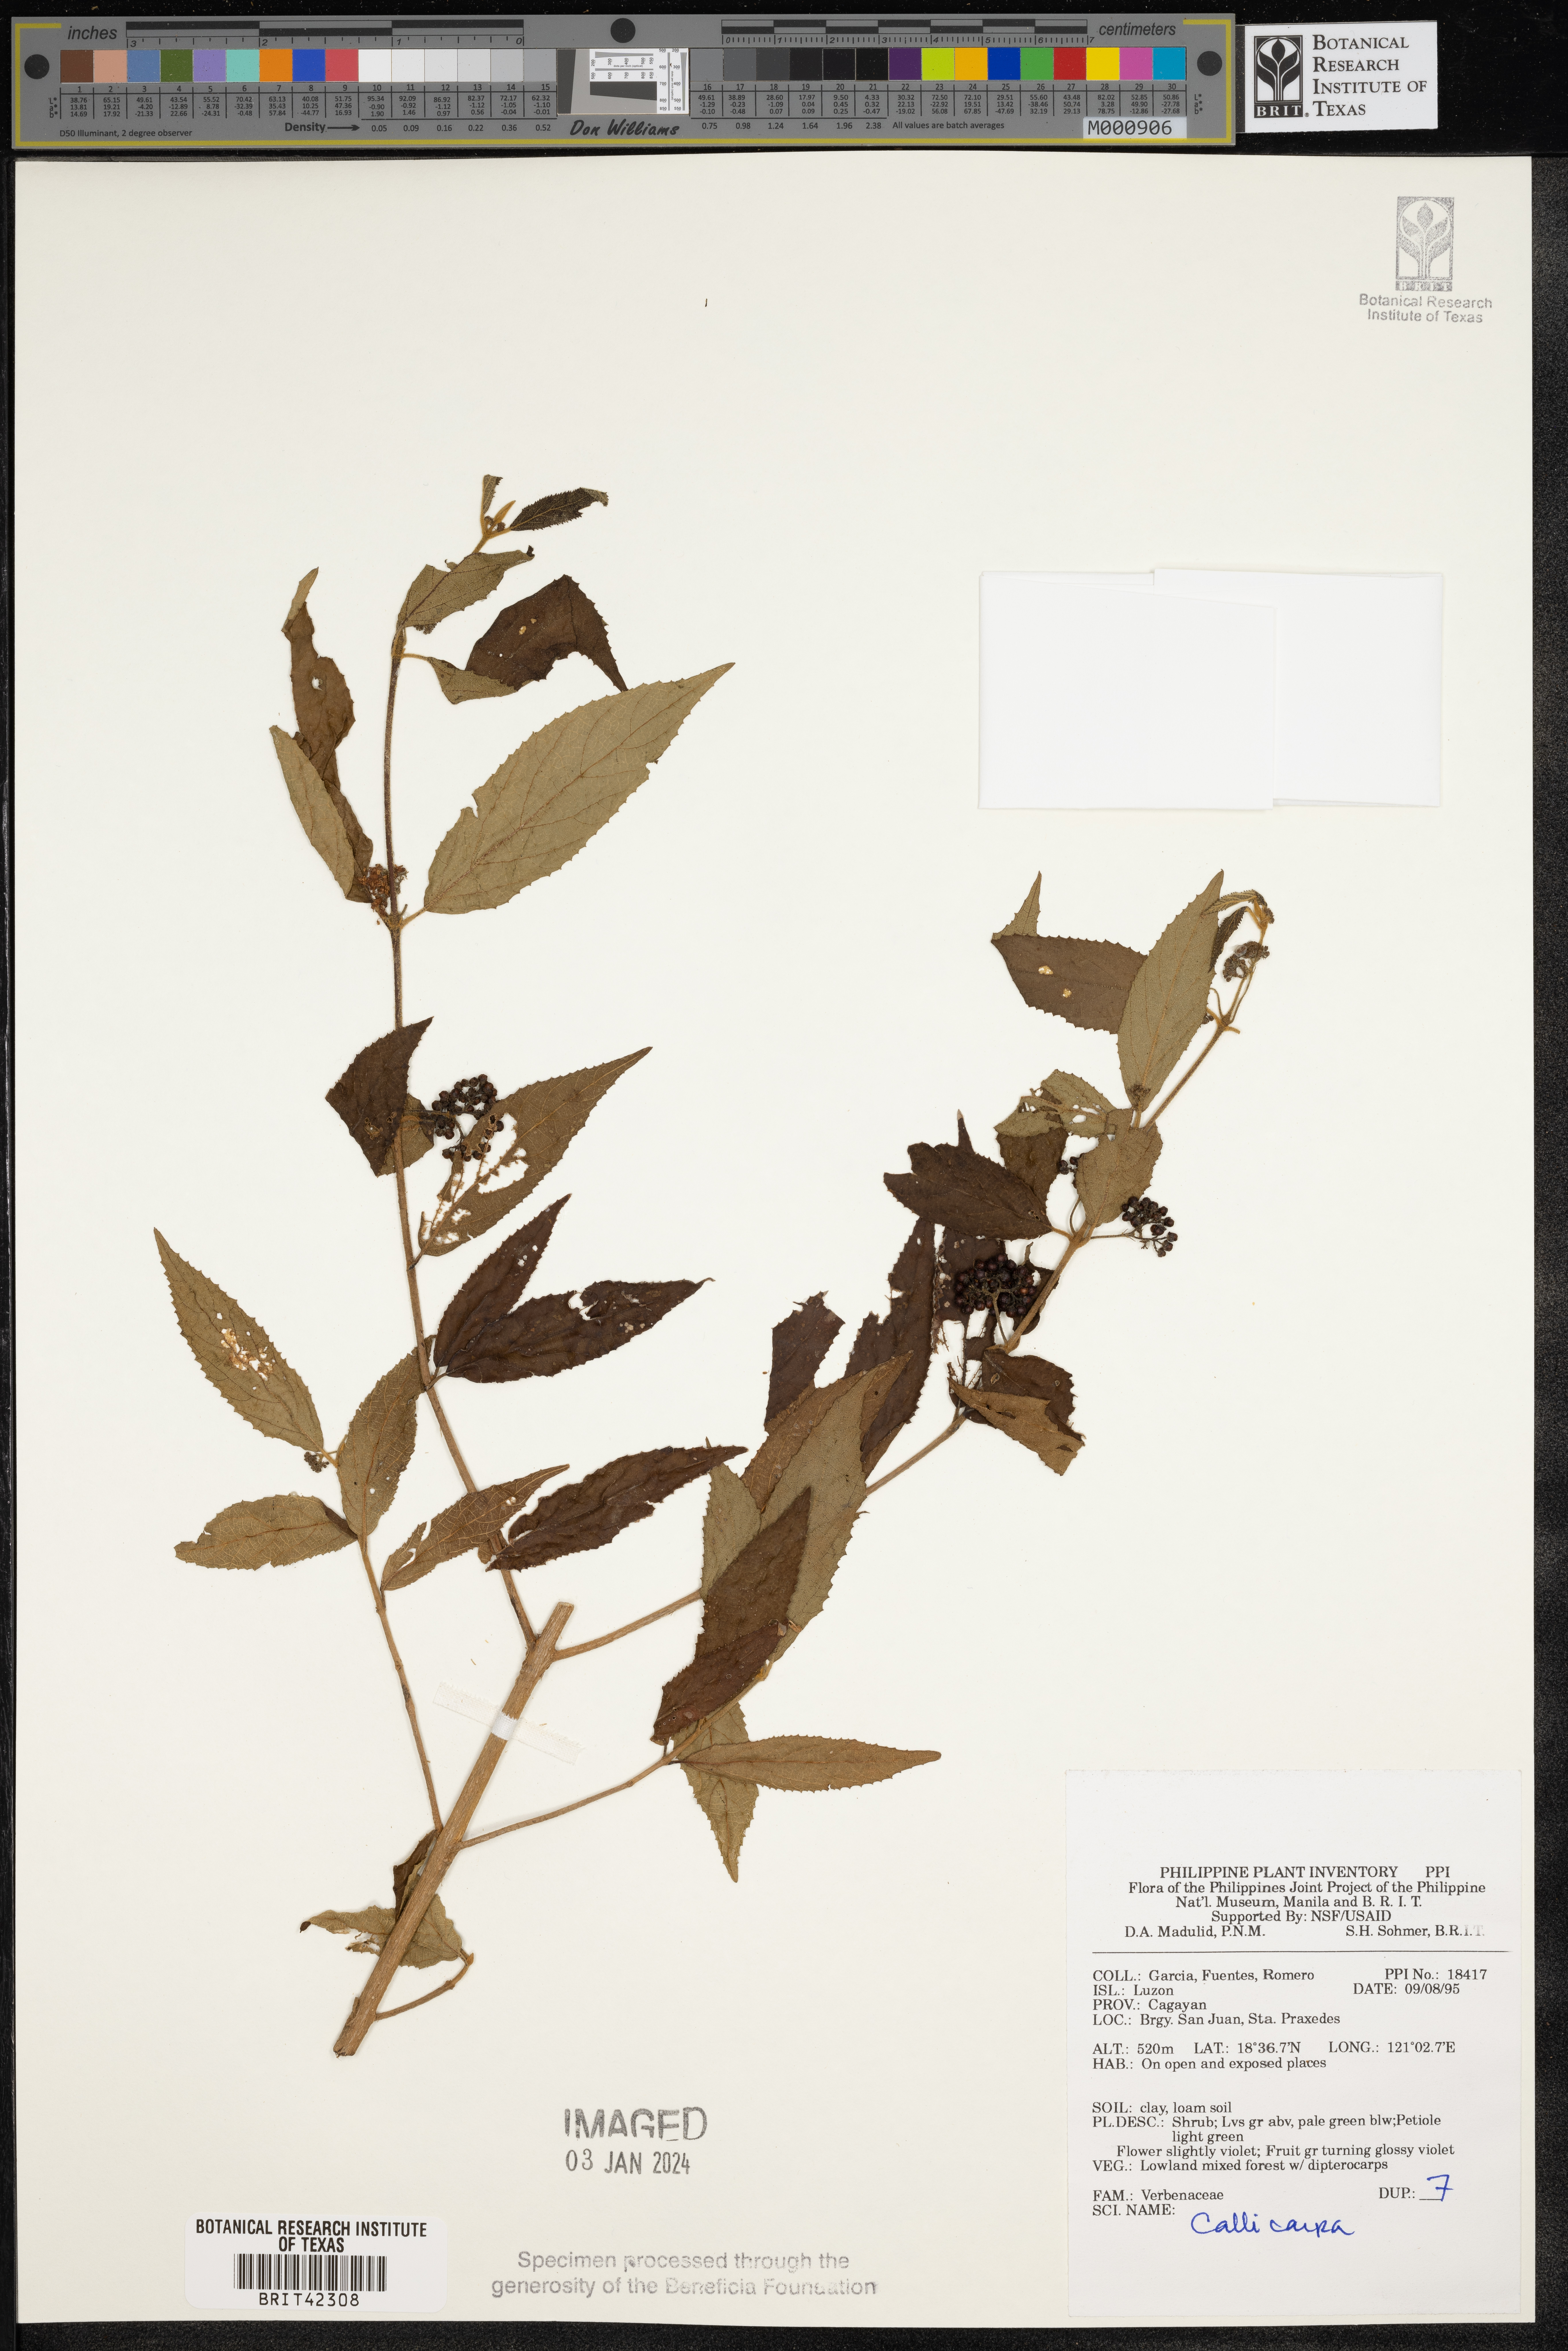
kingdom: Plantae
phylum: Tracheophyta
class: Magnoliopsida
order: Lamiales
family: Lamiaceae
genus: Callicarpa
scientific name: Callicarpa
